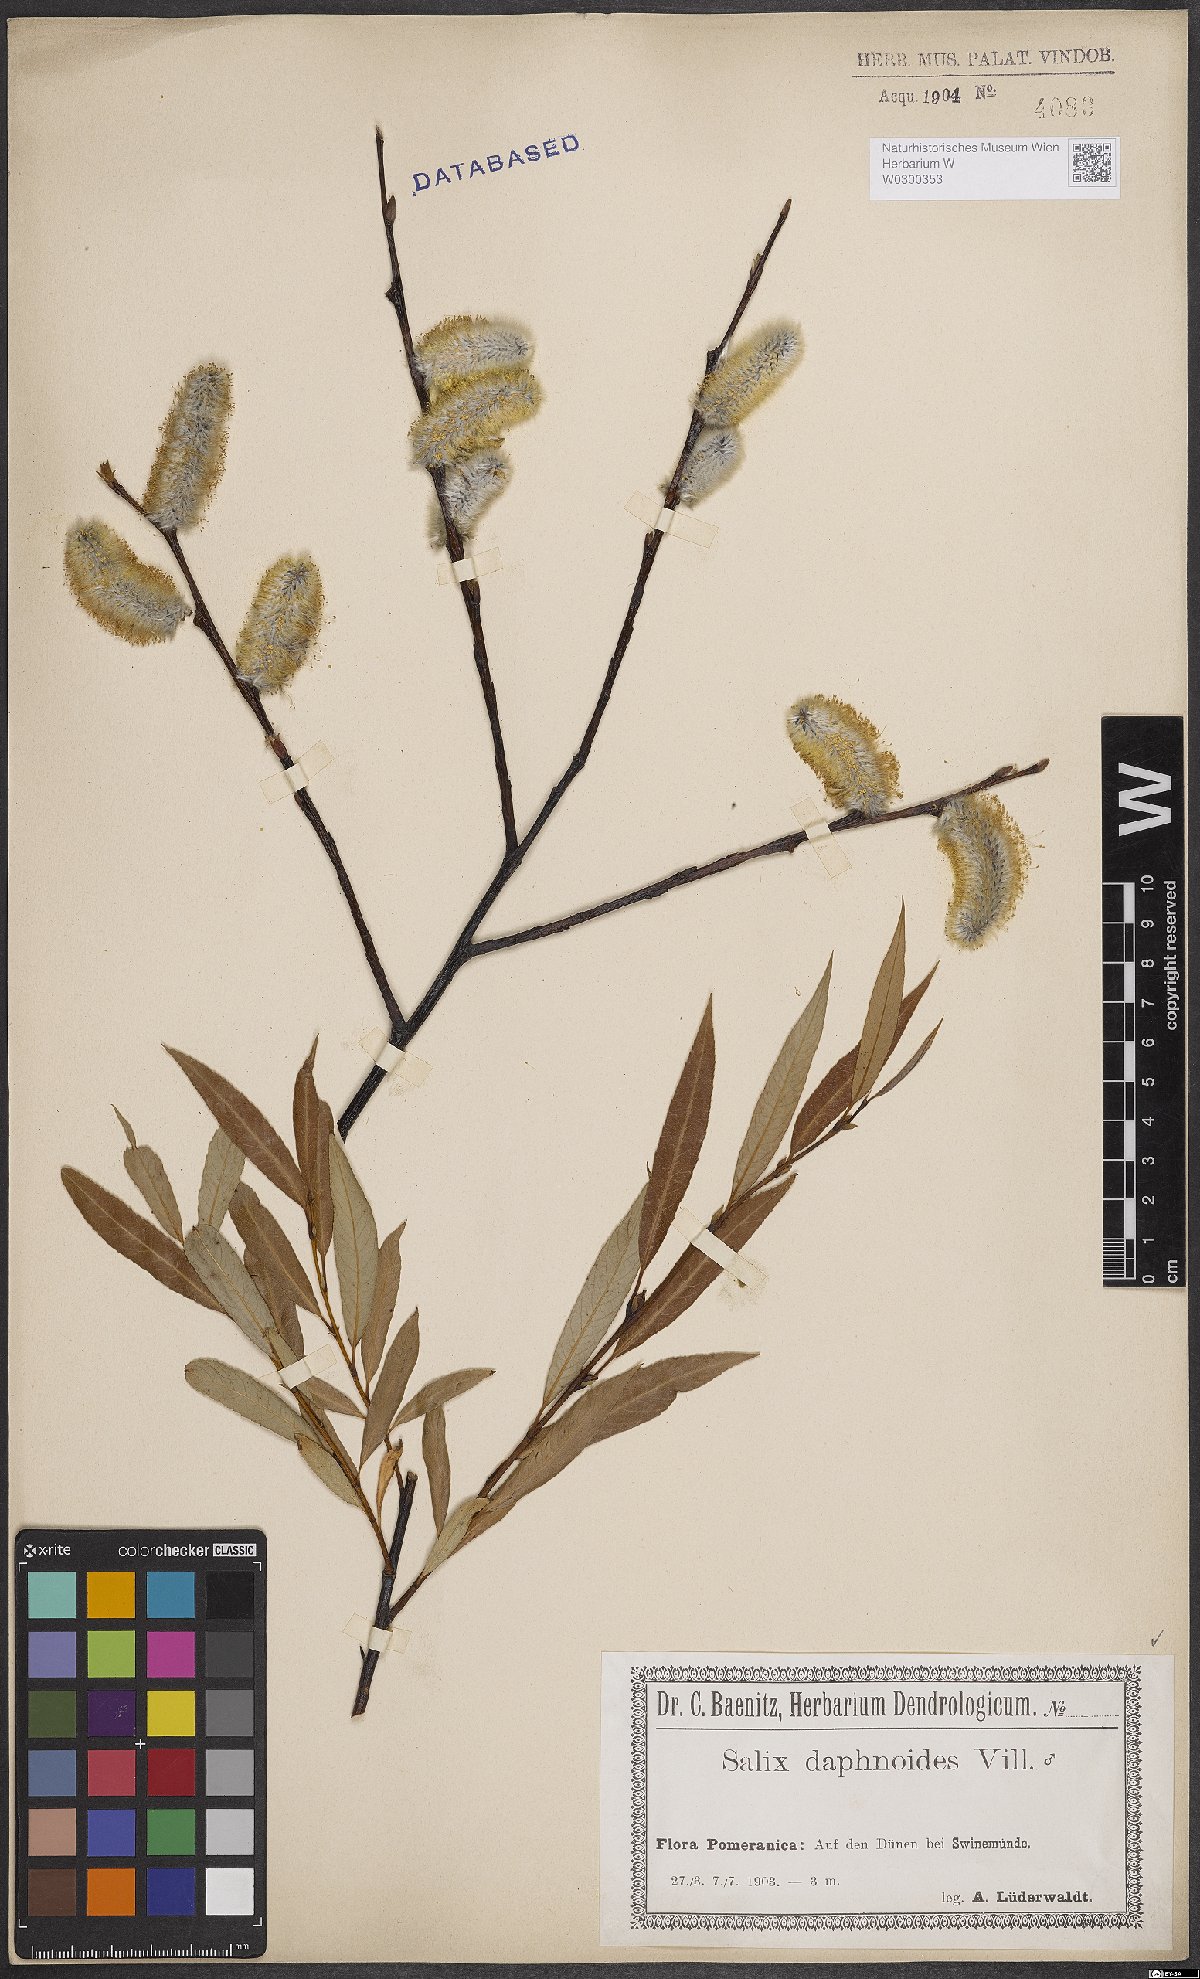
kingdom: Plantae
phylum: Tracheophyta
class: Magnoliopsida
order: Malpighiales
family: Salicaceae
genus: Salix
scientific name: Salix daphnoides
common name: European violet-willow
